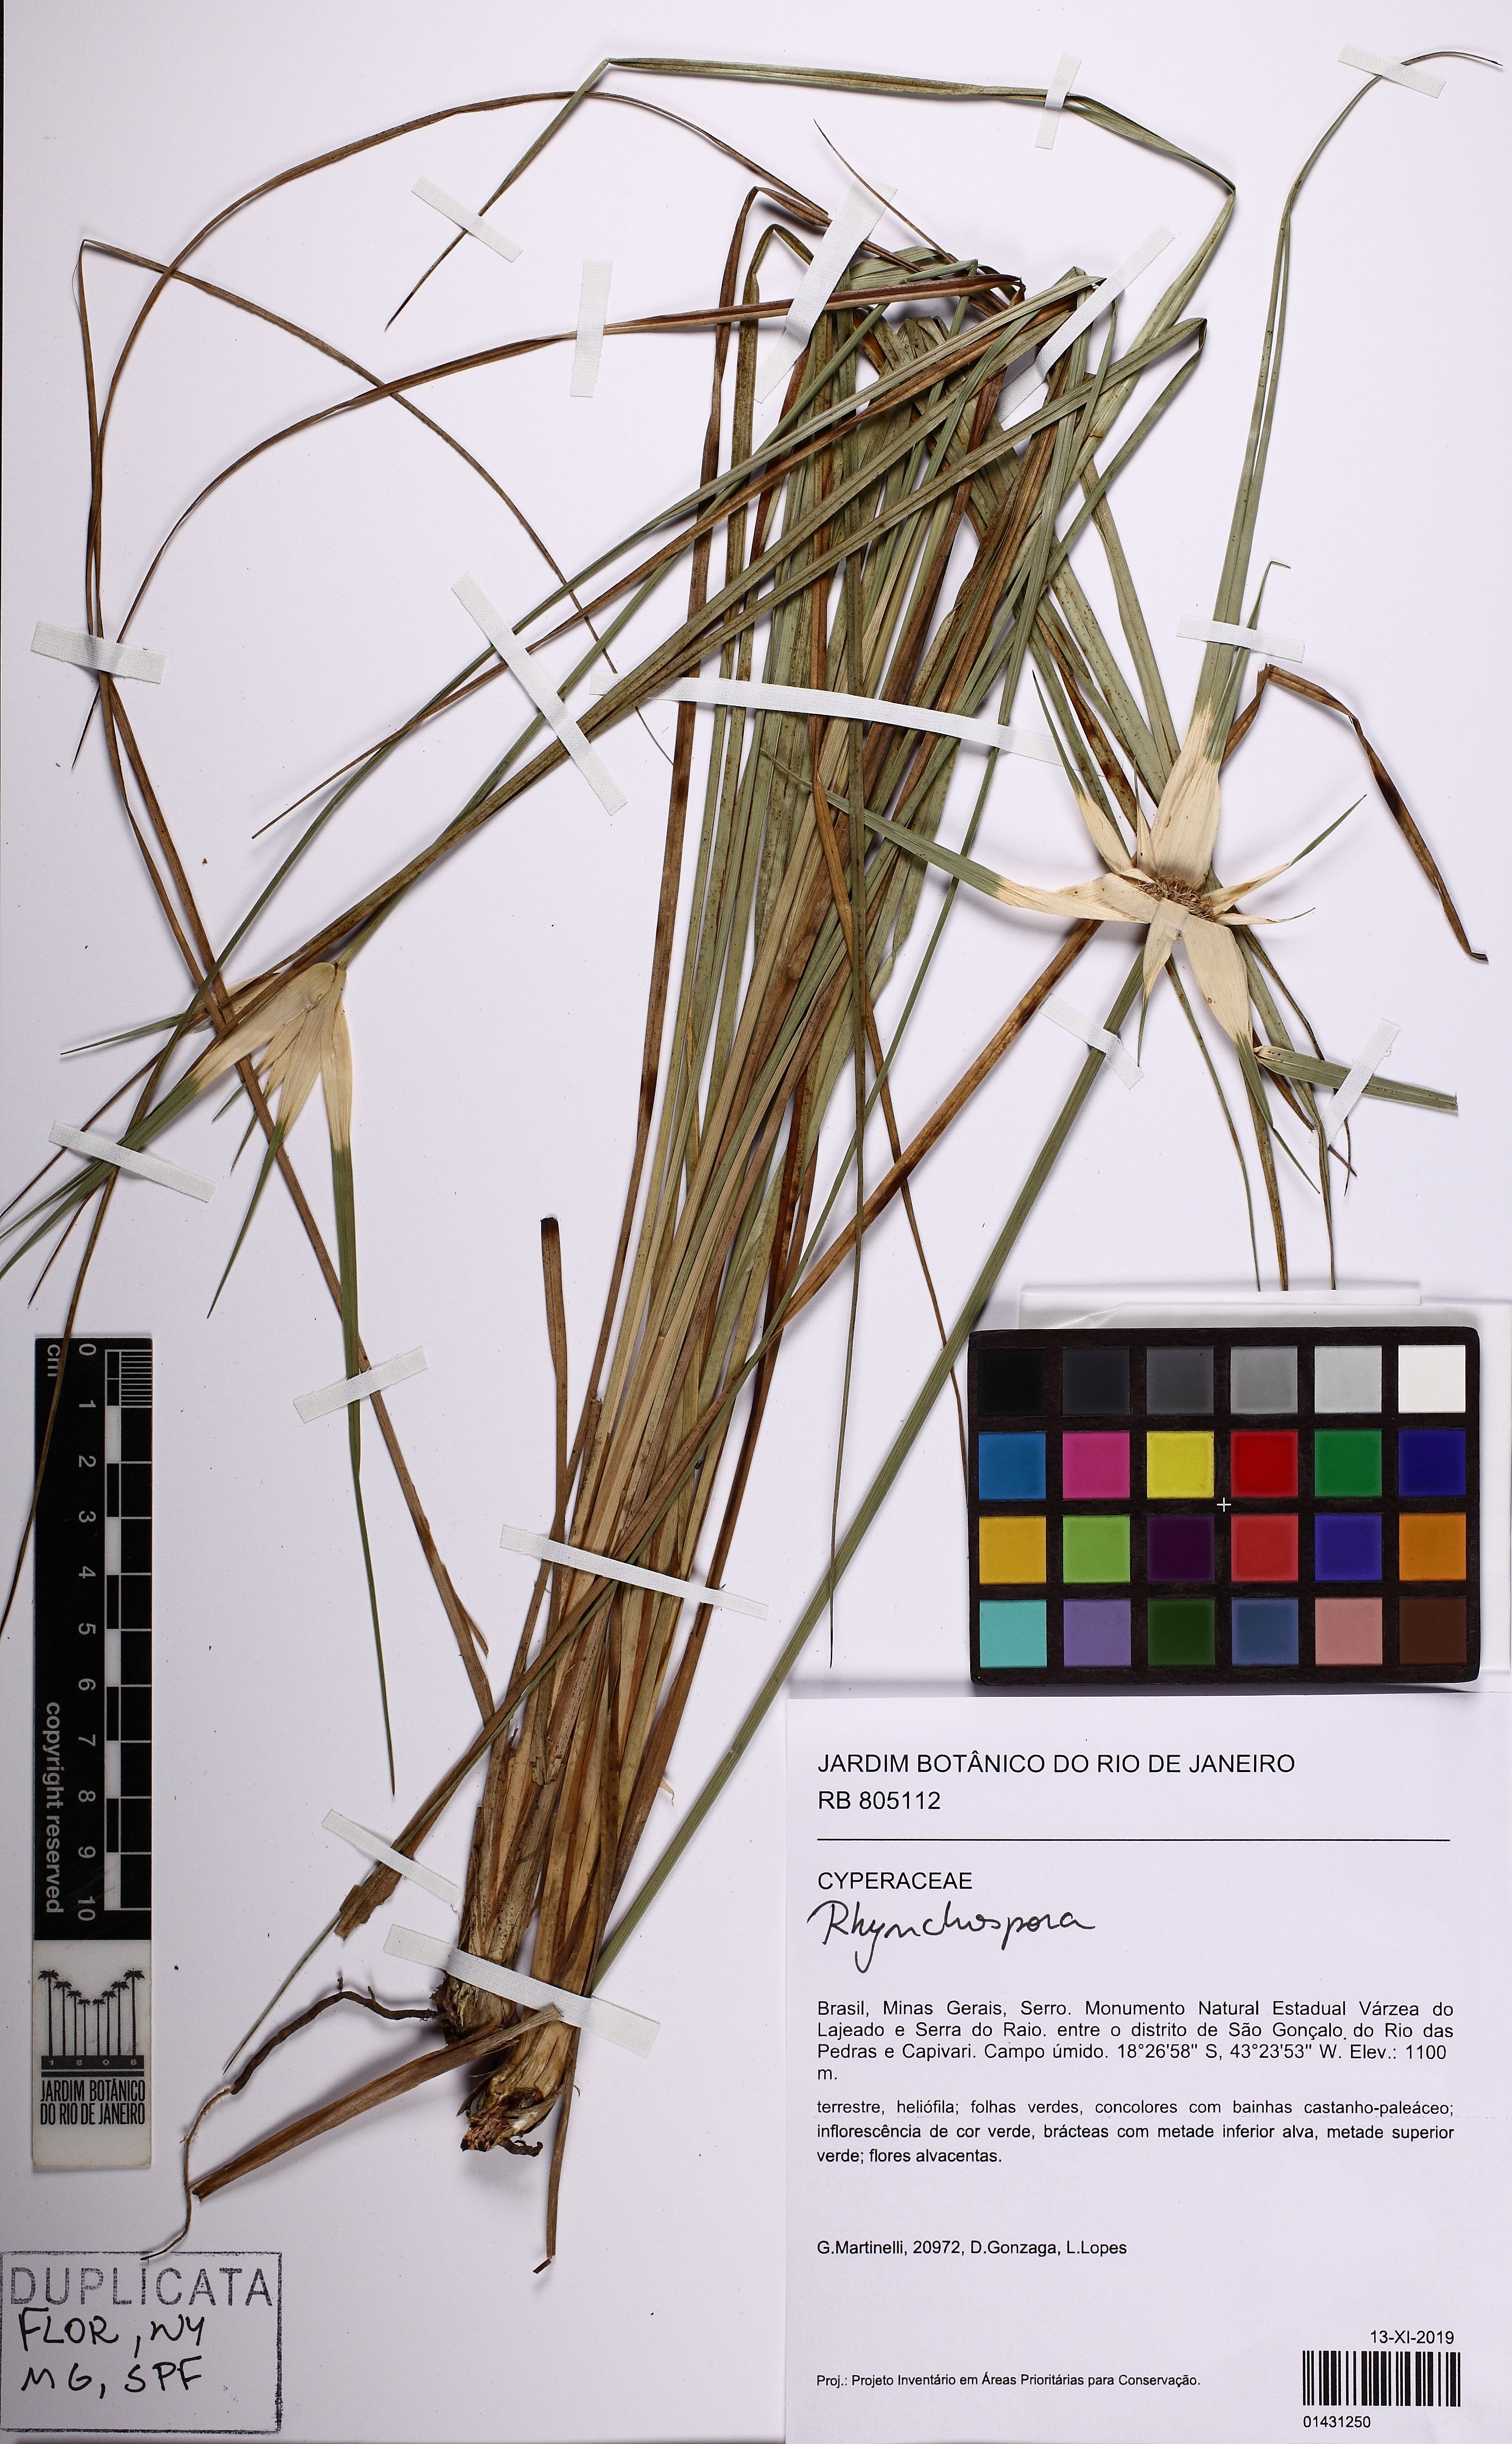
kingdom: Plantae
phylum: Tracheophyta
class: Liliopsida
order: Poales
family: Cyperaceae
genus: Rhynchospora
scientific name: Rhynchospora speciosa
